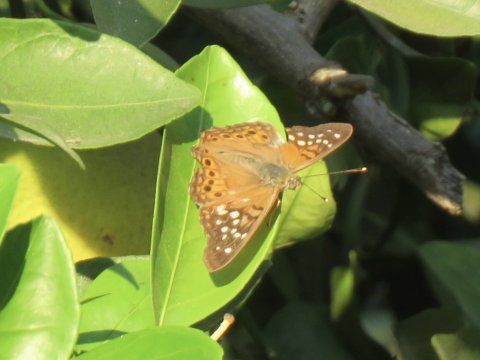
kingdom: Animalia
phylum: Arthropoda
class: Insecta
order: Lepidoptera
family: Nymphalidae
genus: Asterocampa
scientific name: Asterocampa clyton
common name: Tawny Emperor
